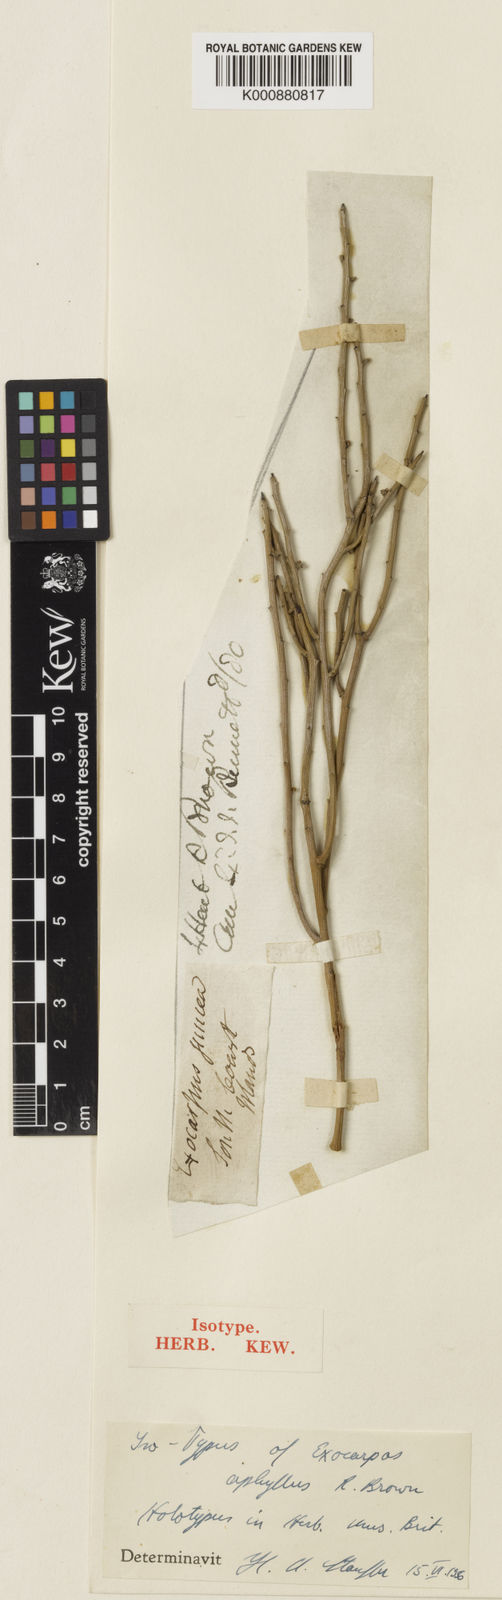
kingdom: Plantae
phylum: Tracheophyta
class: Magnoliopsida
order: Santalales
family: Santalaceae
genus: Exocarpos
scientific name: Exocarpos aphyllus
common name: Leafless ballart
